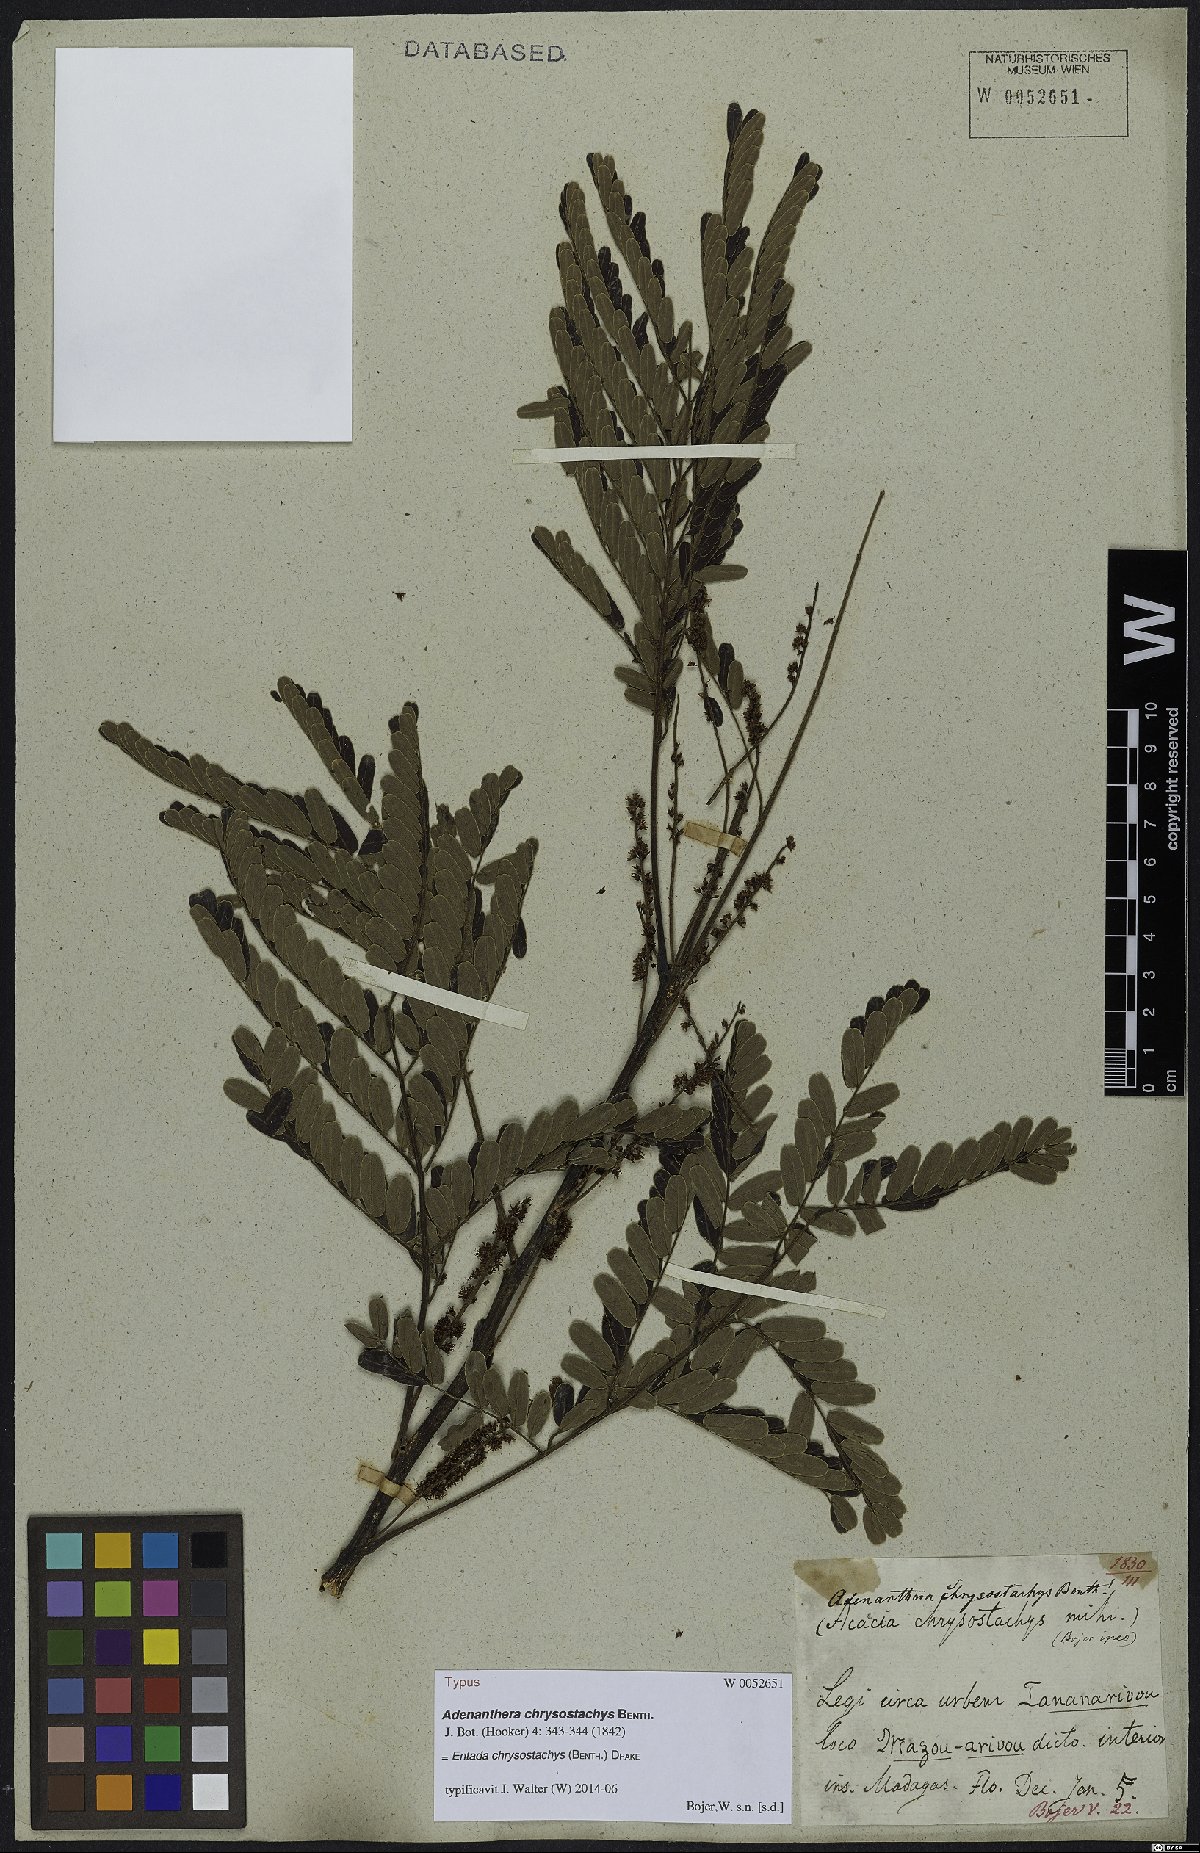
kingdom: Plantae
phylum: Tracheophyta
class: Magnoliopsida
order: Fabales
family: Fabaceae
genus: Entada
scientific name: Entada chrysostachys
